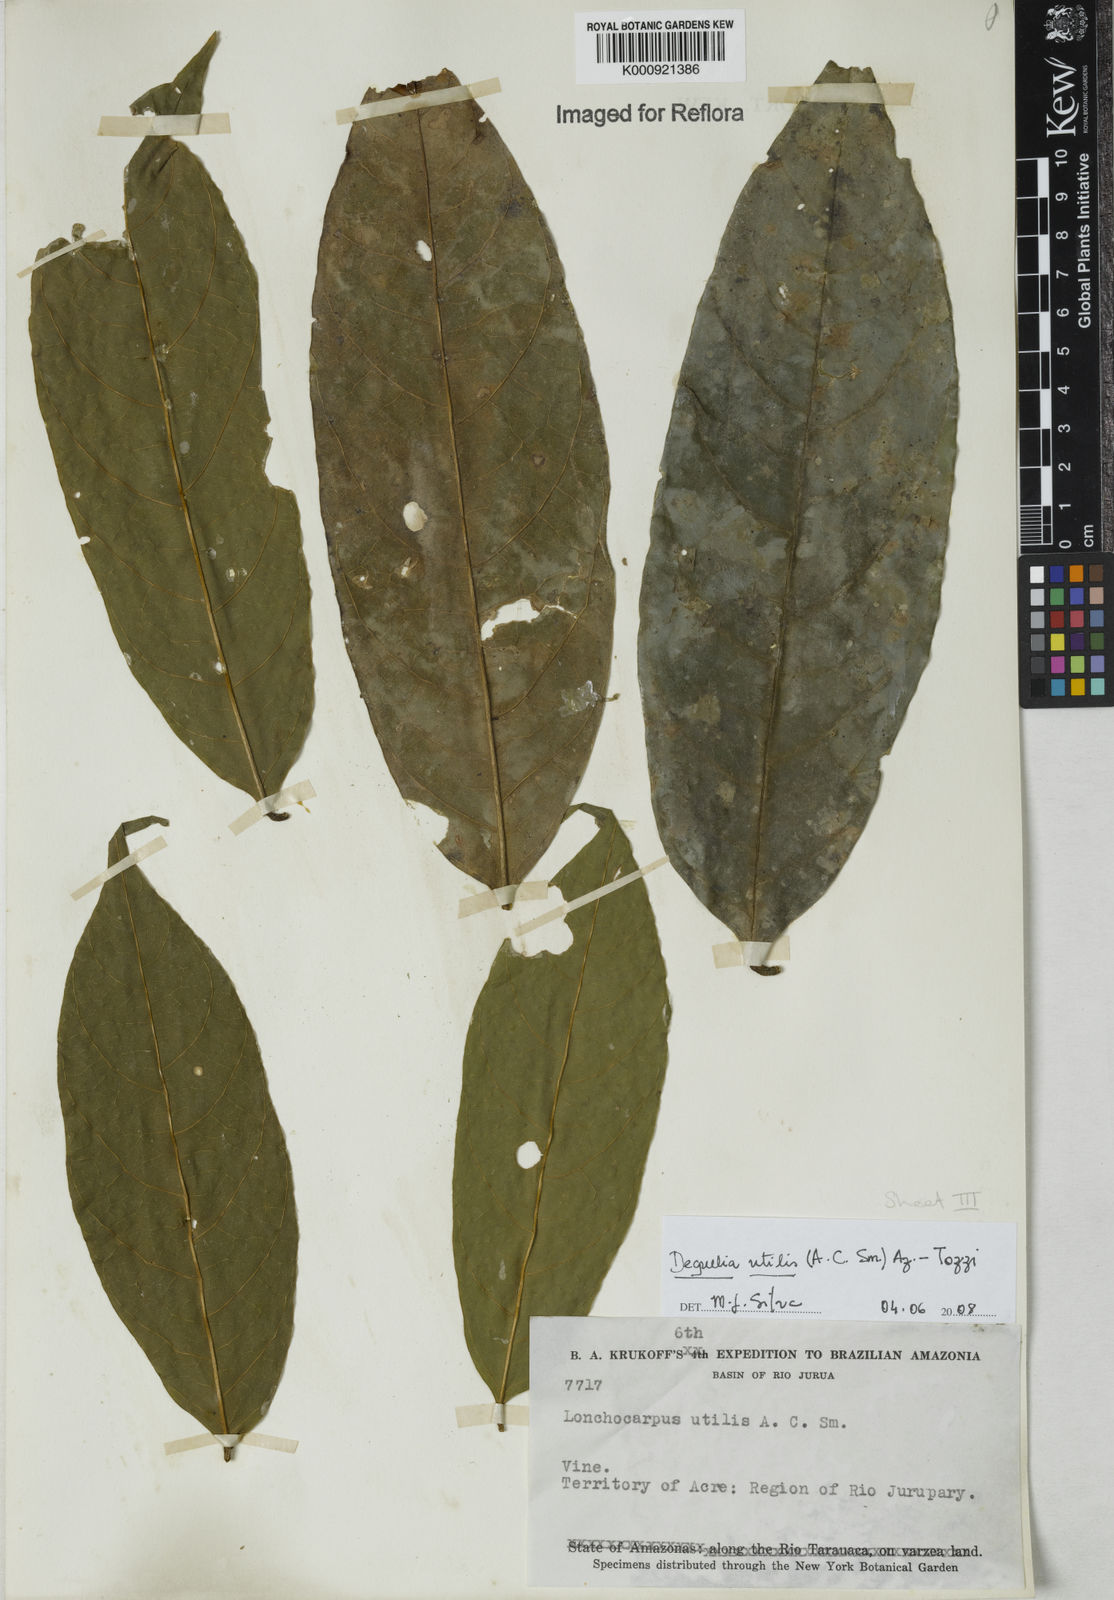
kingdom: Plantae
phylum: Tracheophyta
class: Magnoliopsida
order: Fabales
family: Fabaceae
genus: Deguelia
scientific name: Deguelia utilis
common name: Timbo
